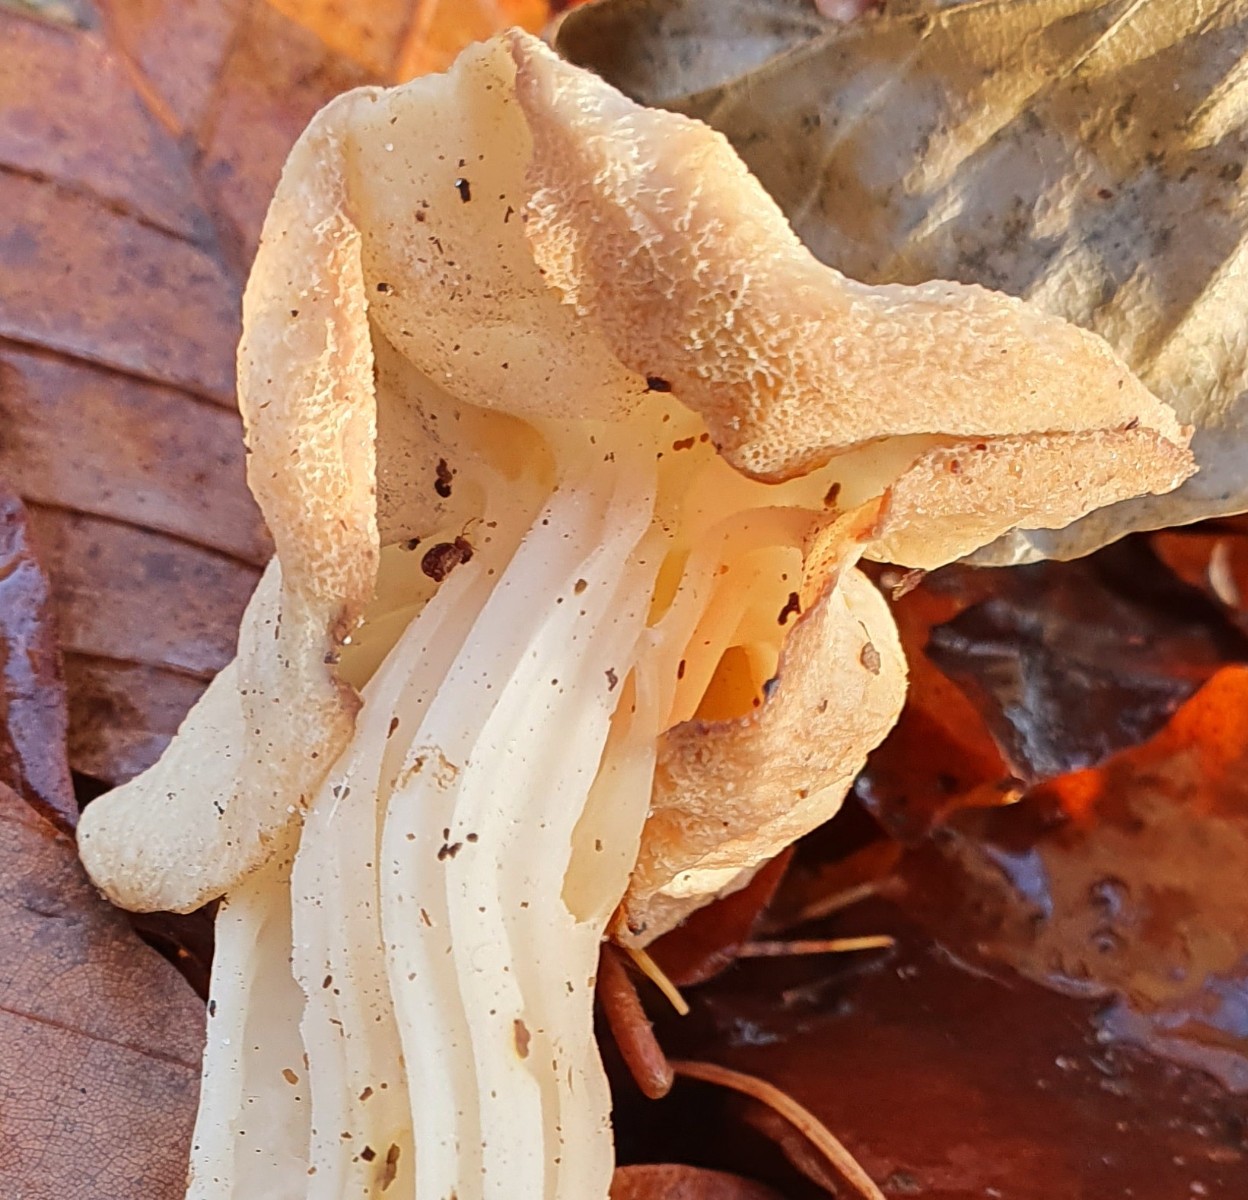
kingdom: Fungi
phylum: Ascomycota
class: Pezizomycetes
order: Pezizales
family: Helvellaceae
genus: Helvella
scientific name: Helvella crispa
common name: kruset foldhat
